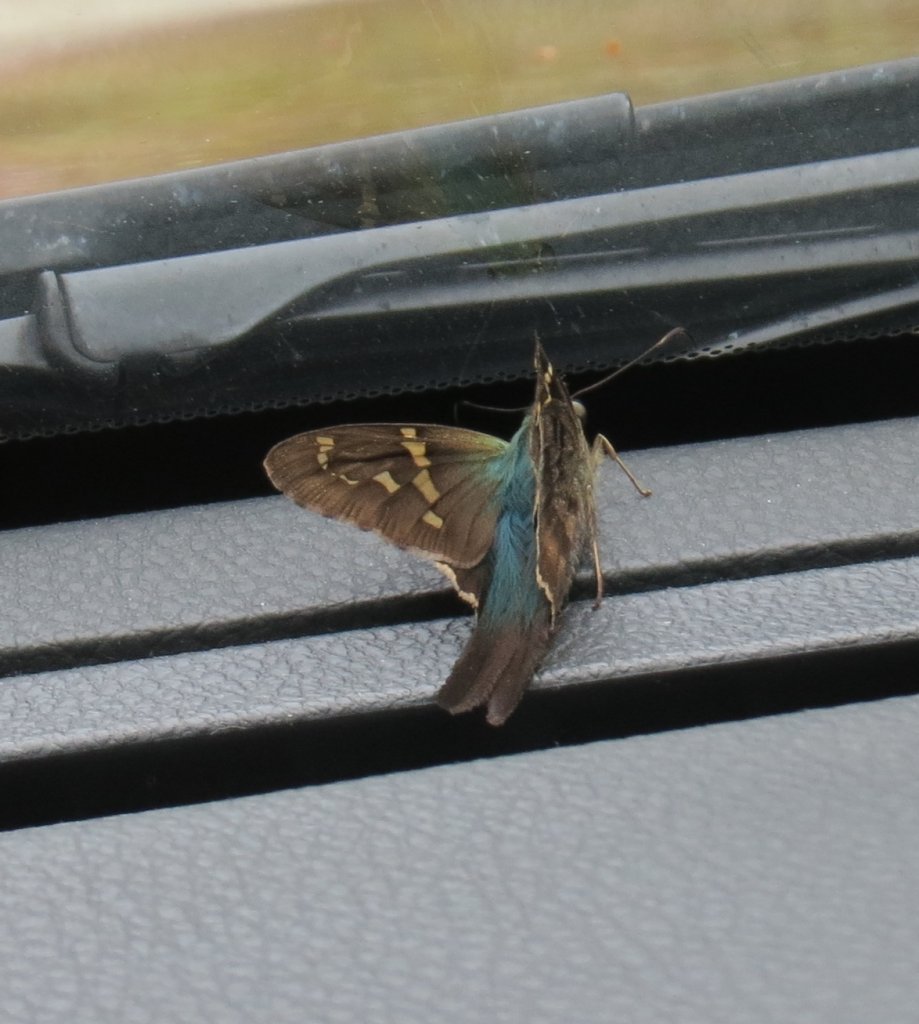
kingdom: Animalia
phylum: Arthropoda
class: Insecta
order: Lepidoptera
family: Hesperiidae
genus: Urbanus
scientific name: Urbanus proteus
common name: Long-tailed Skipper
